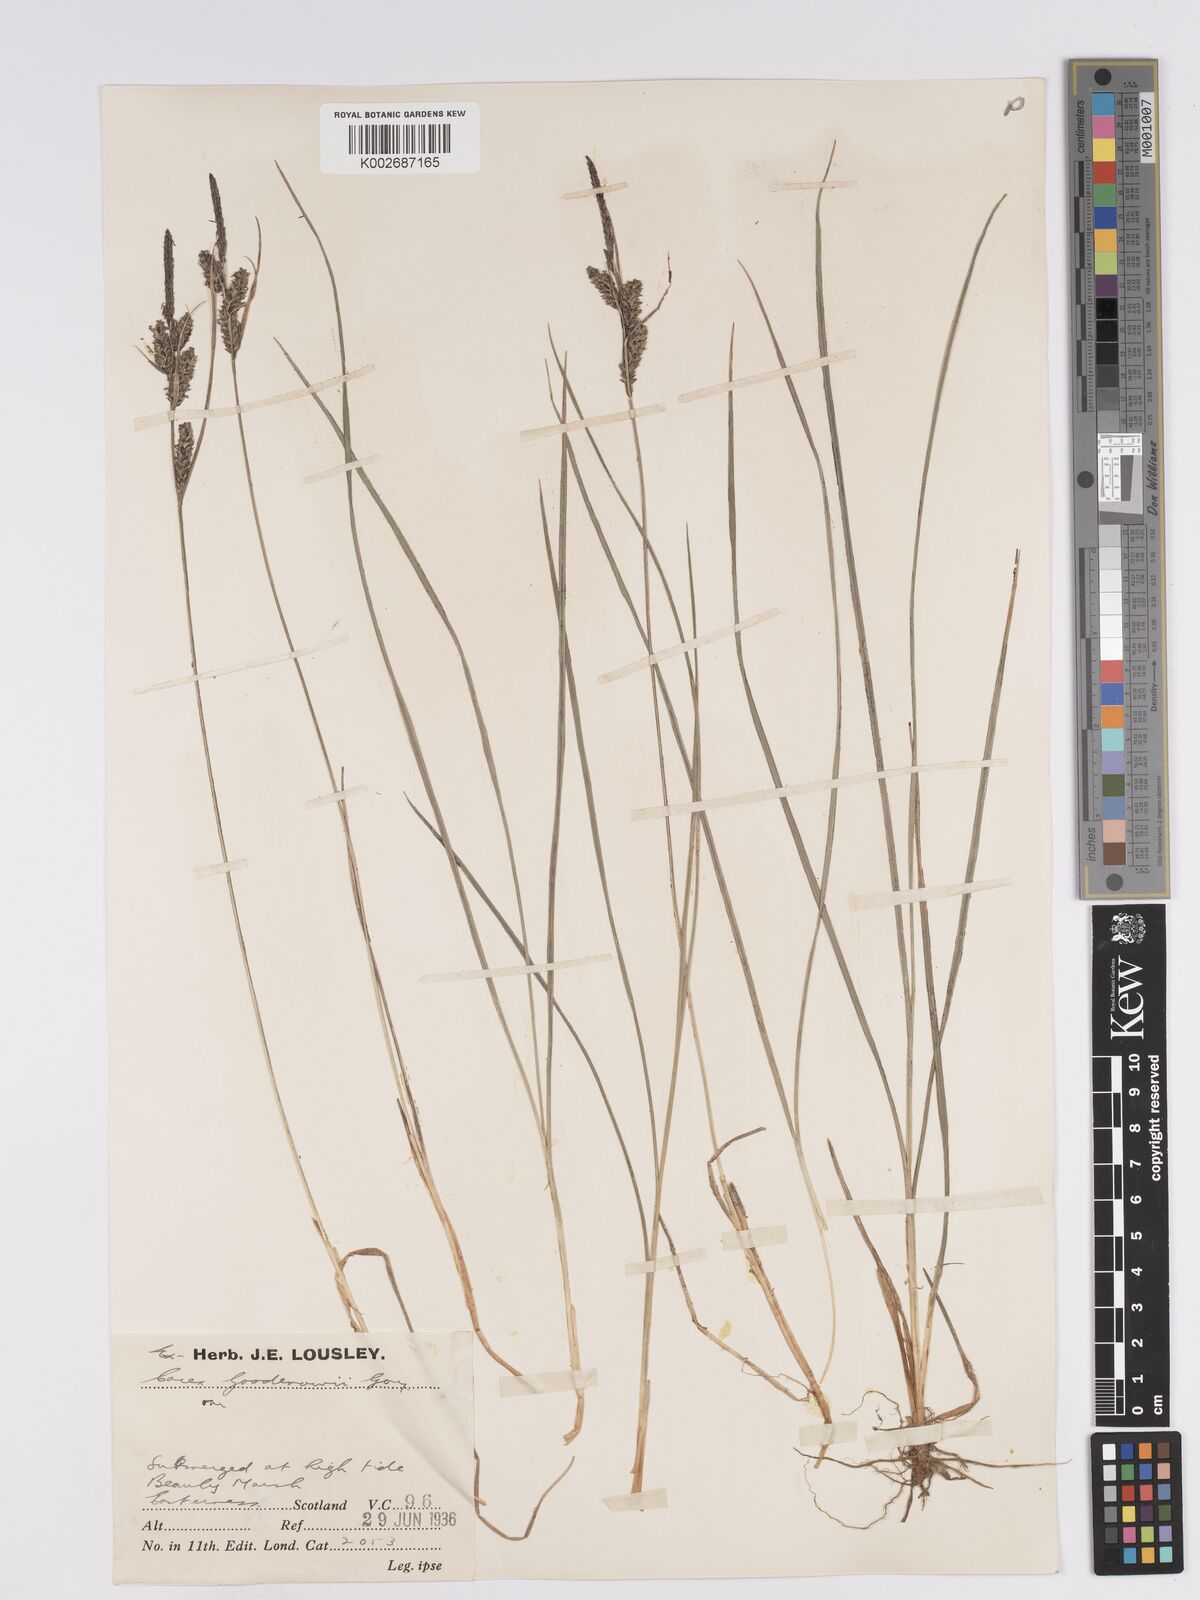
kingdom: Plantae
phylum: Tracheophyta
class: Liliopsida
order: Poales
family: Cyperaceae
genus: Carex
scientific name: Carex nigra
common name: Common sedge
